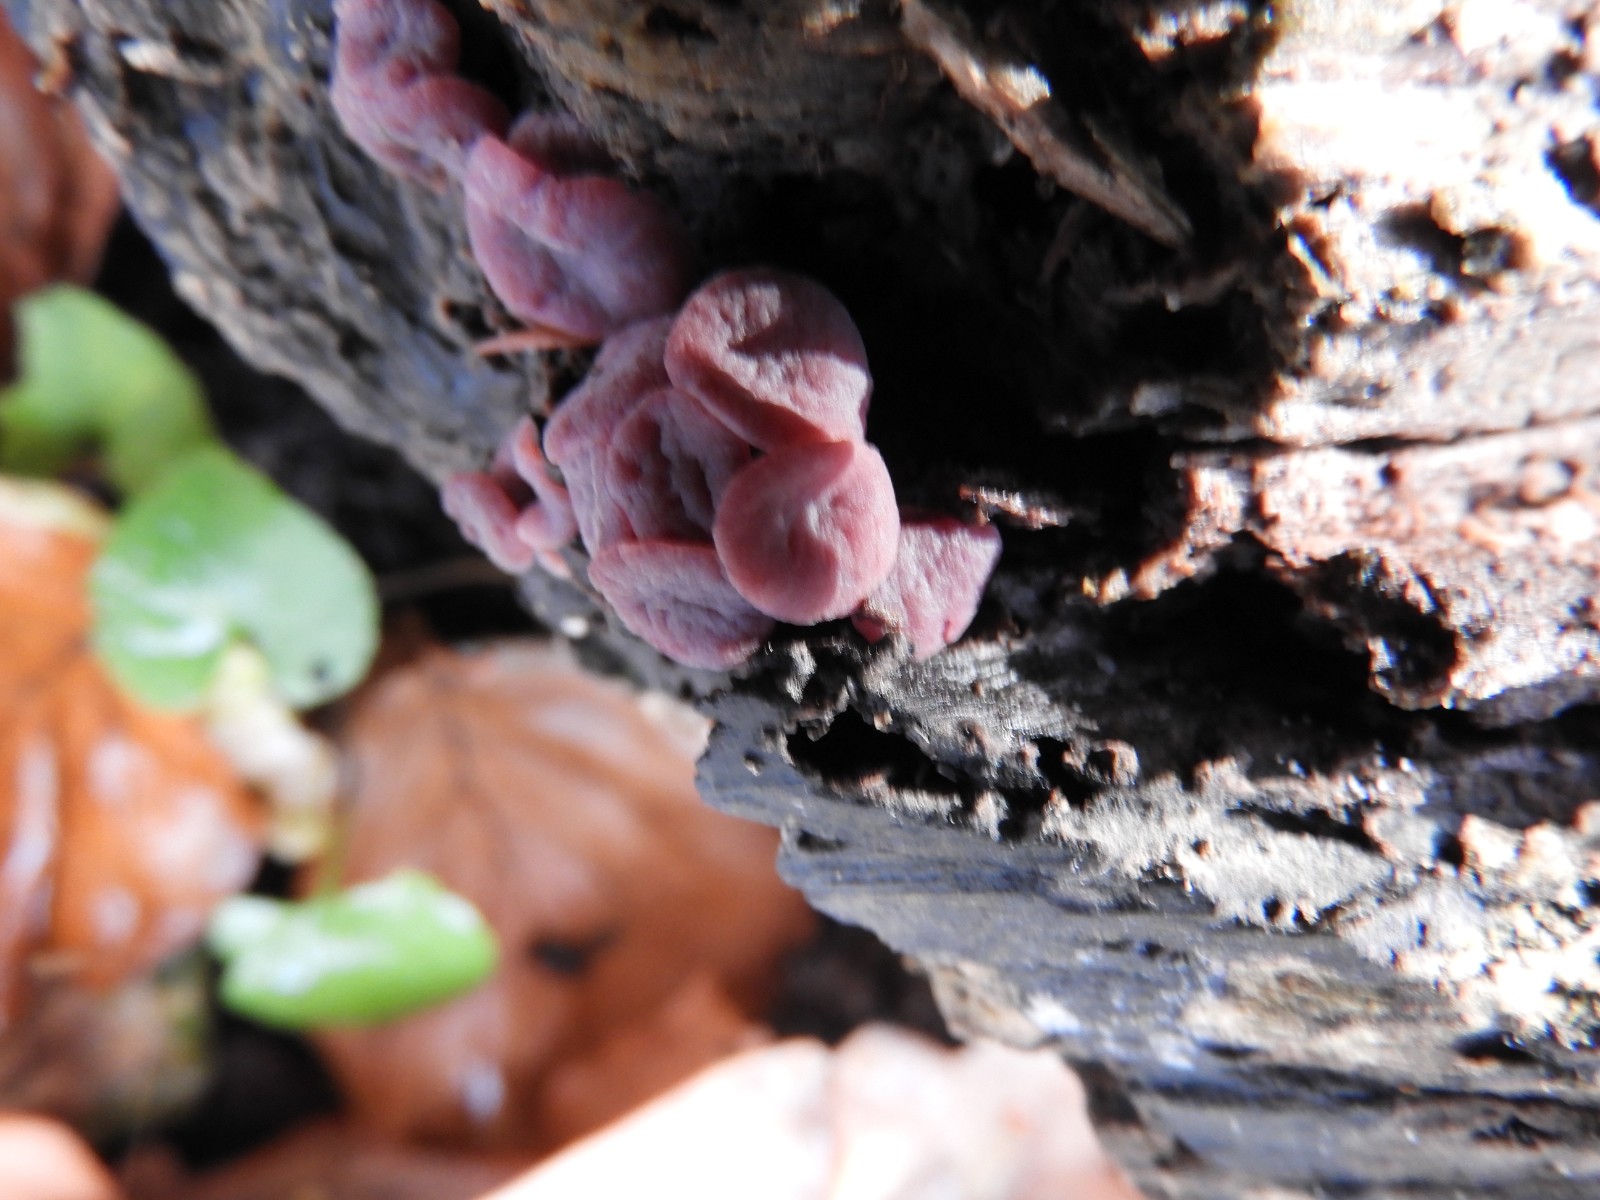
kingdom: Fungi
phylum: Ascomycota
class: Leotiomycetes
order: Helotiales
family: Gelatinodiscaceae
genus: Ascocoryne
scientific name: Ascocoryne cylichnium
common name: stor sejskive
